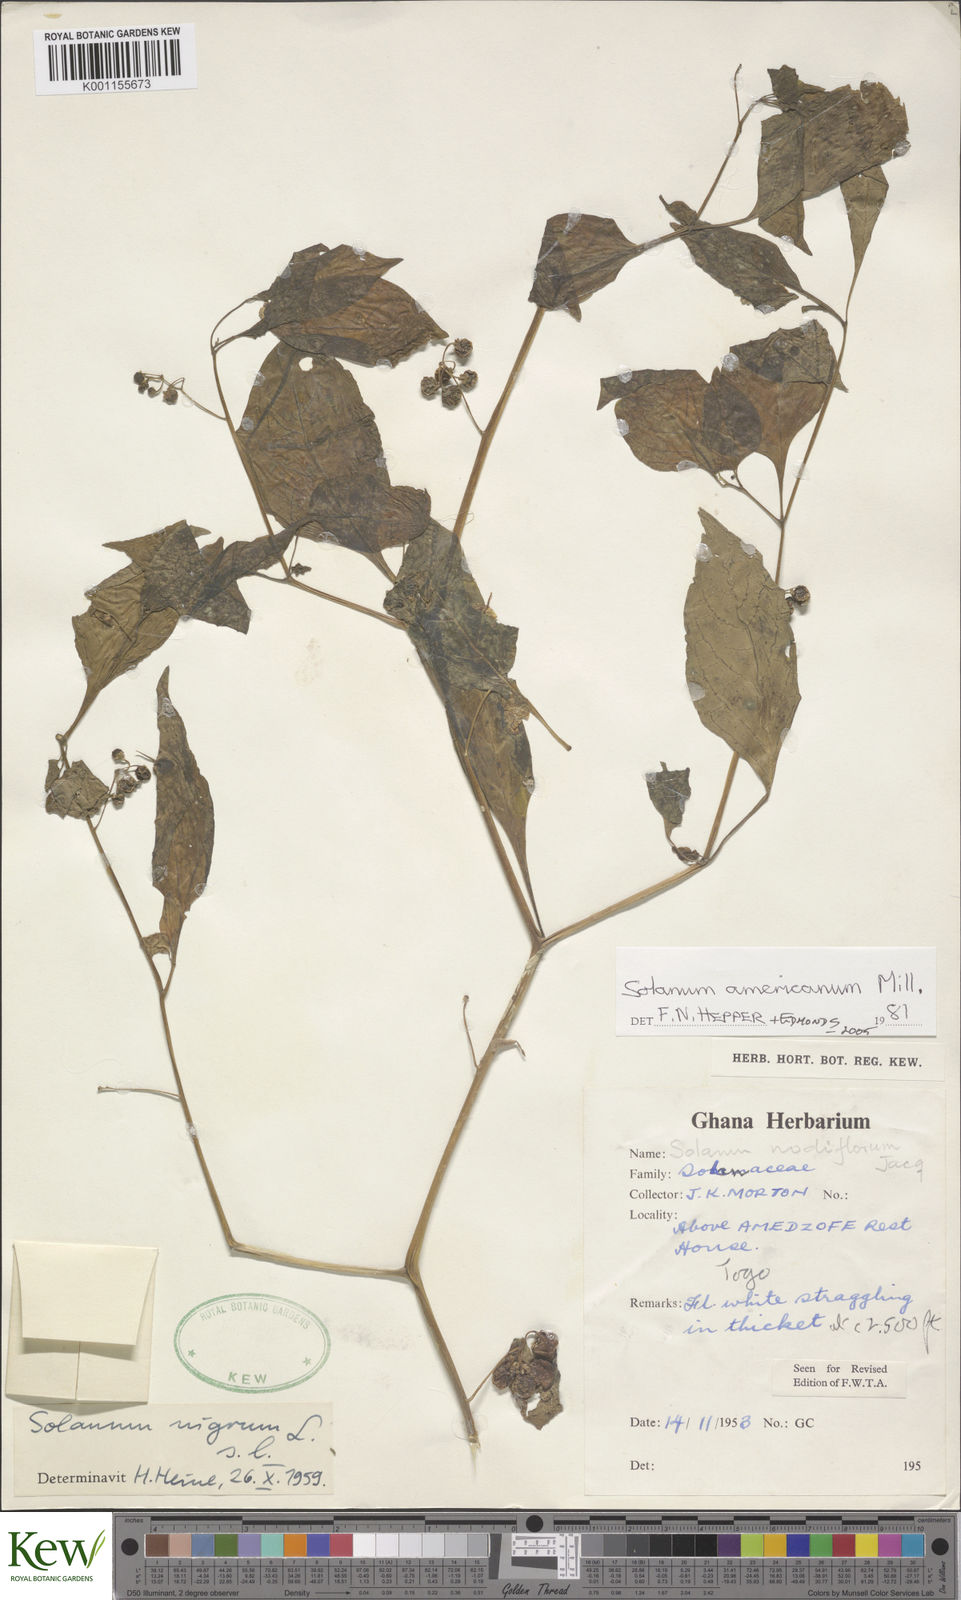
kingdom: Plantae
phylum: Tracheophyta
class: Magnoliopsida
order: Solanales
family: Solanaceae
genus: Solanum
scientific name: Solanum scabrum
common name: Garden-huckleberry
